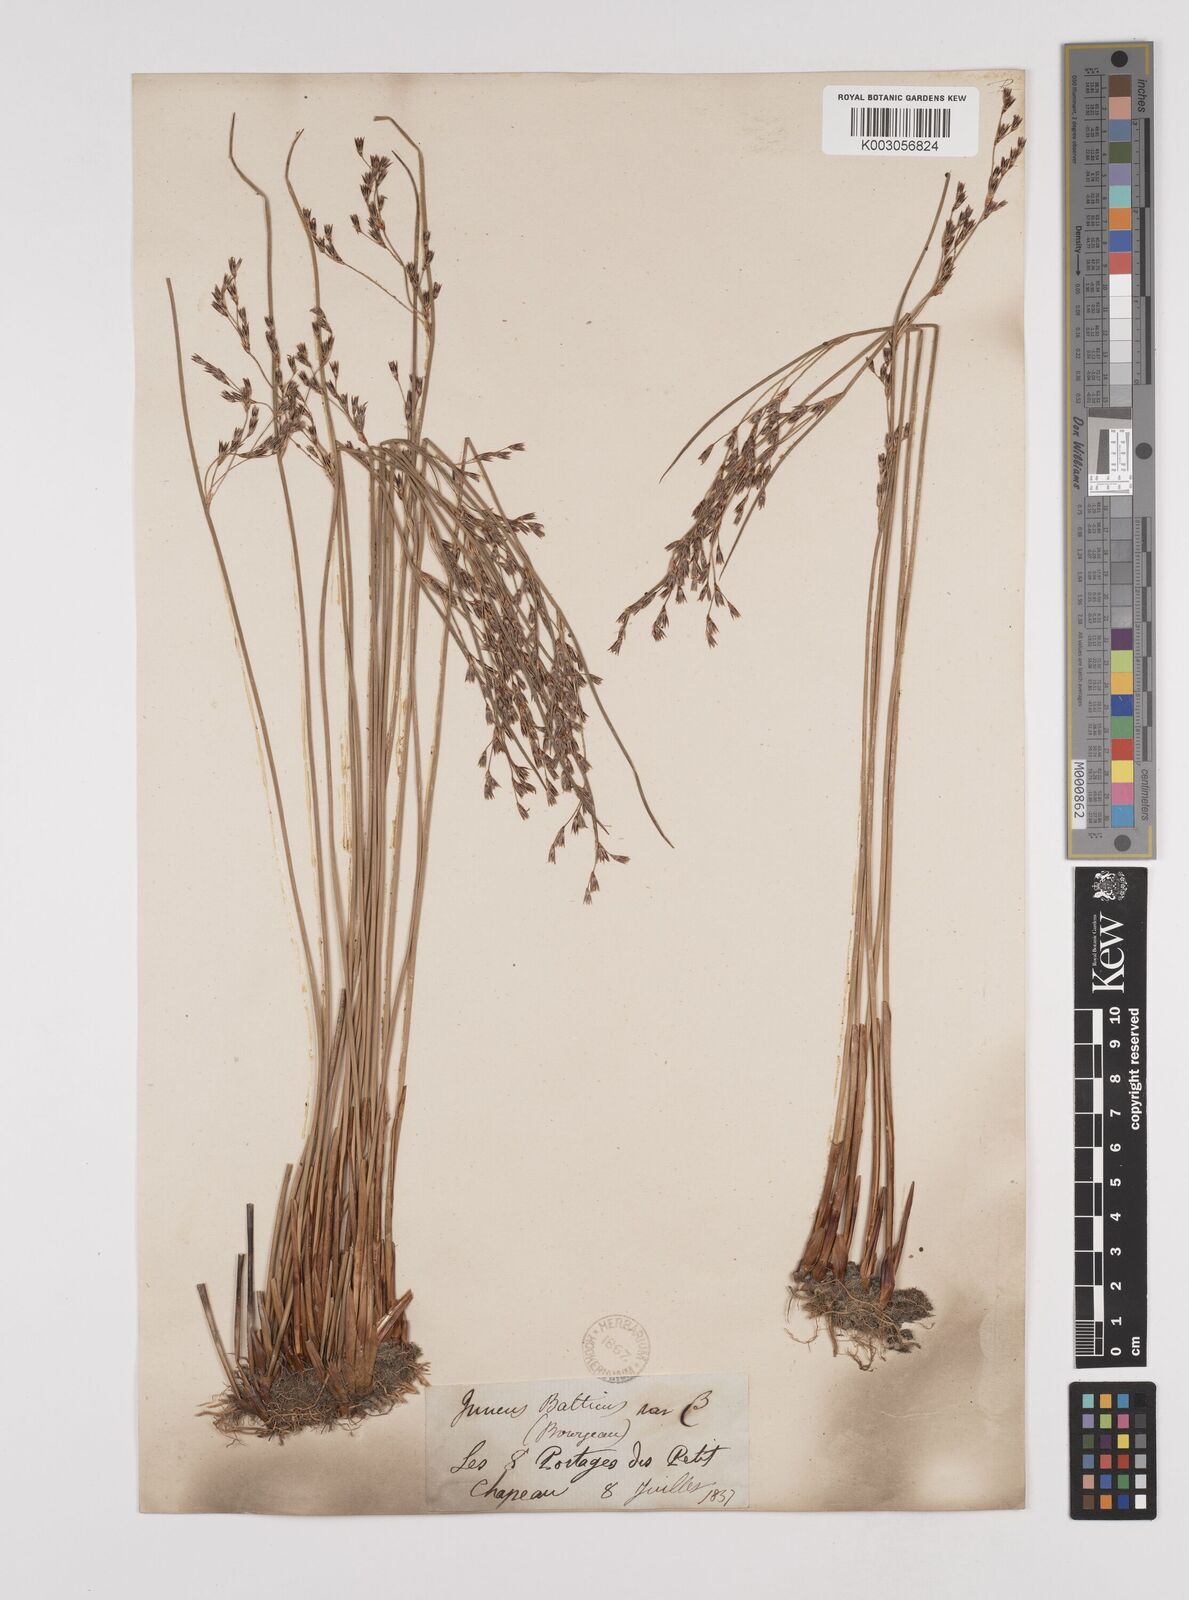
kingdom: Plantae
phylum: Tracheophyta
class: Liliopsida
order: Poales
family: Juncaceae
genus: Juncus
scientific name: Juncus balticus
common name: Baltic rush
